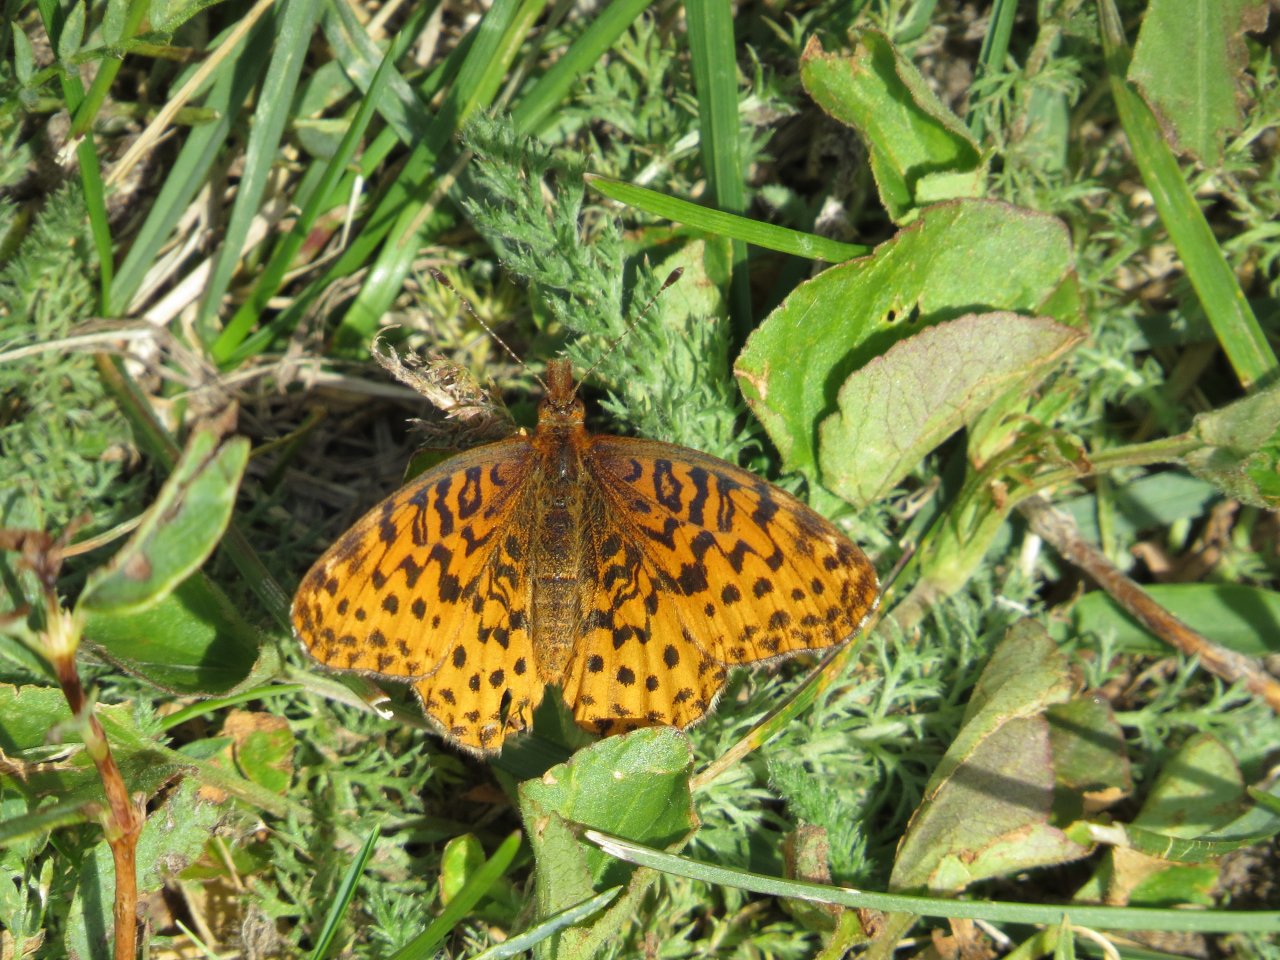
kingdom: Animalia
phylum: Arthropoda
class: Insecta
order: Lepidoptera
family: Nymphalidae
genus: Clossiana
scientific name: Clossiana toddi
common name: Meadow Fritillary
